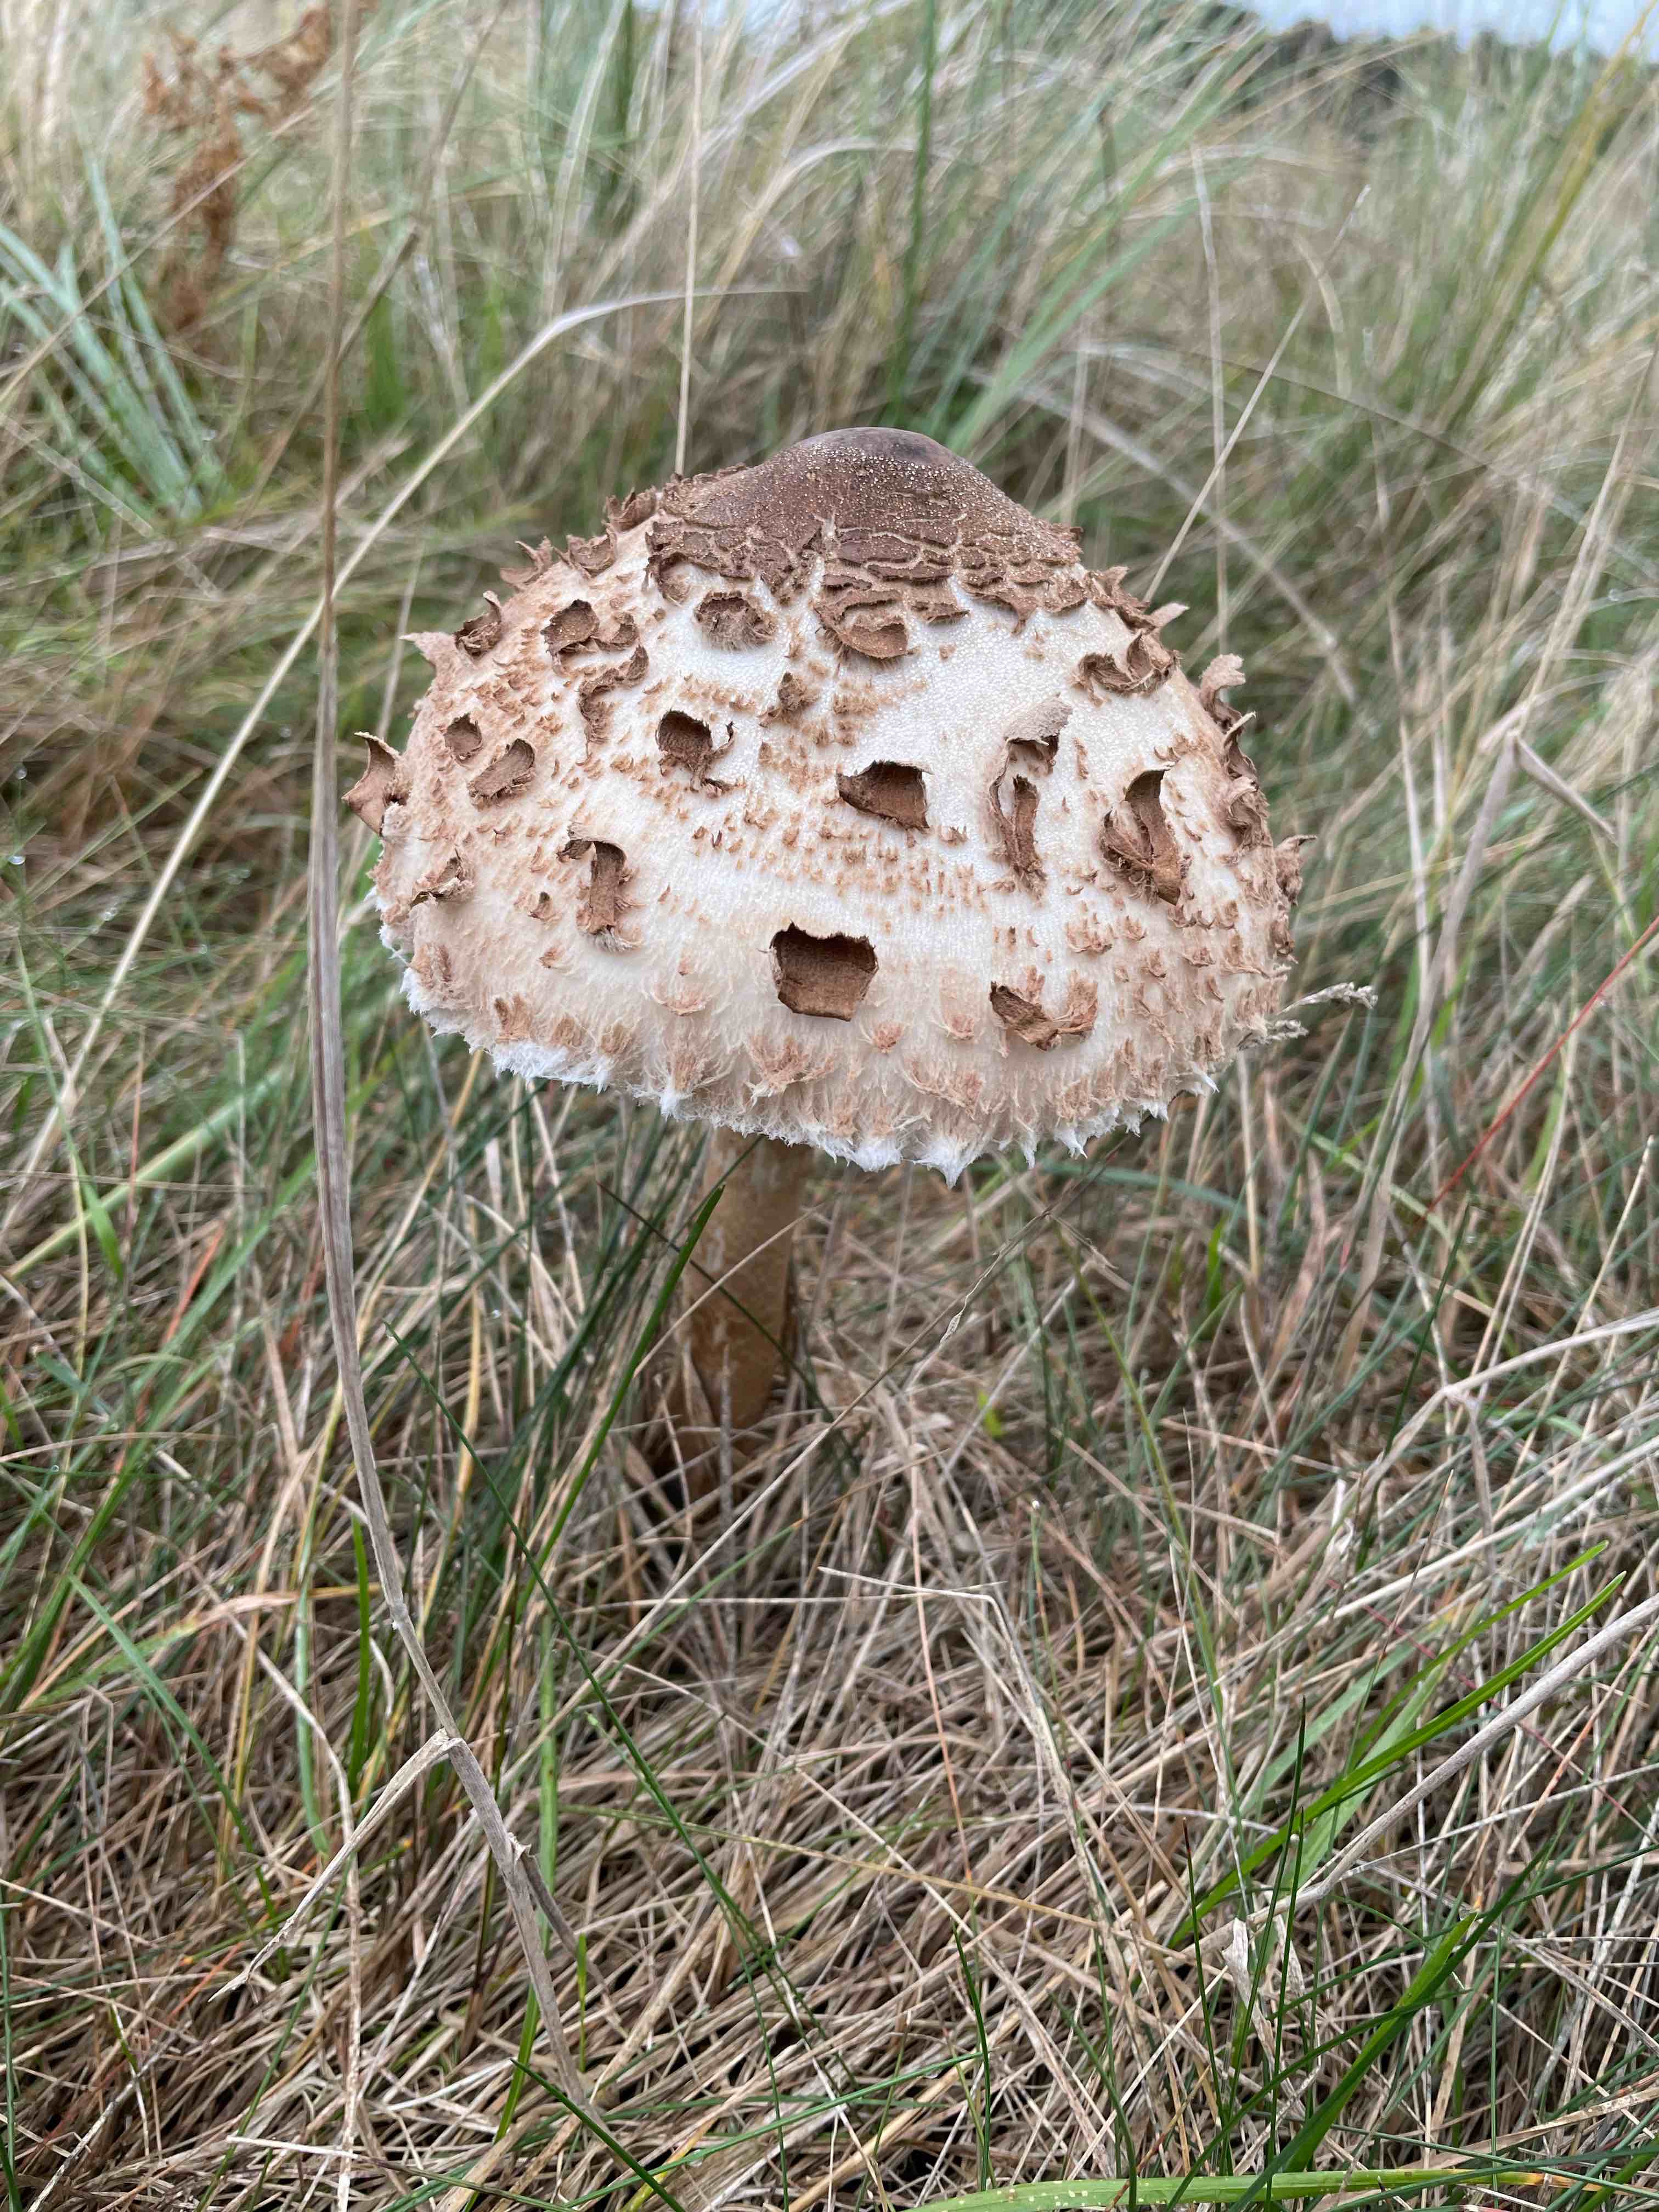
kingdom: Fungi
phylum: Basidiomycota
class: Agaricomycetes
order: Agaricales
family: Agaricaceae
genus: Macrolepiota
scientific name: Macrolepiota procera
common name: stor kæmpeparasolhat
